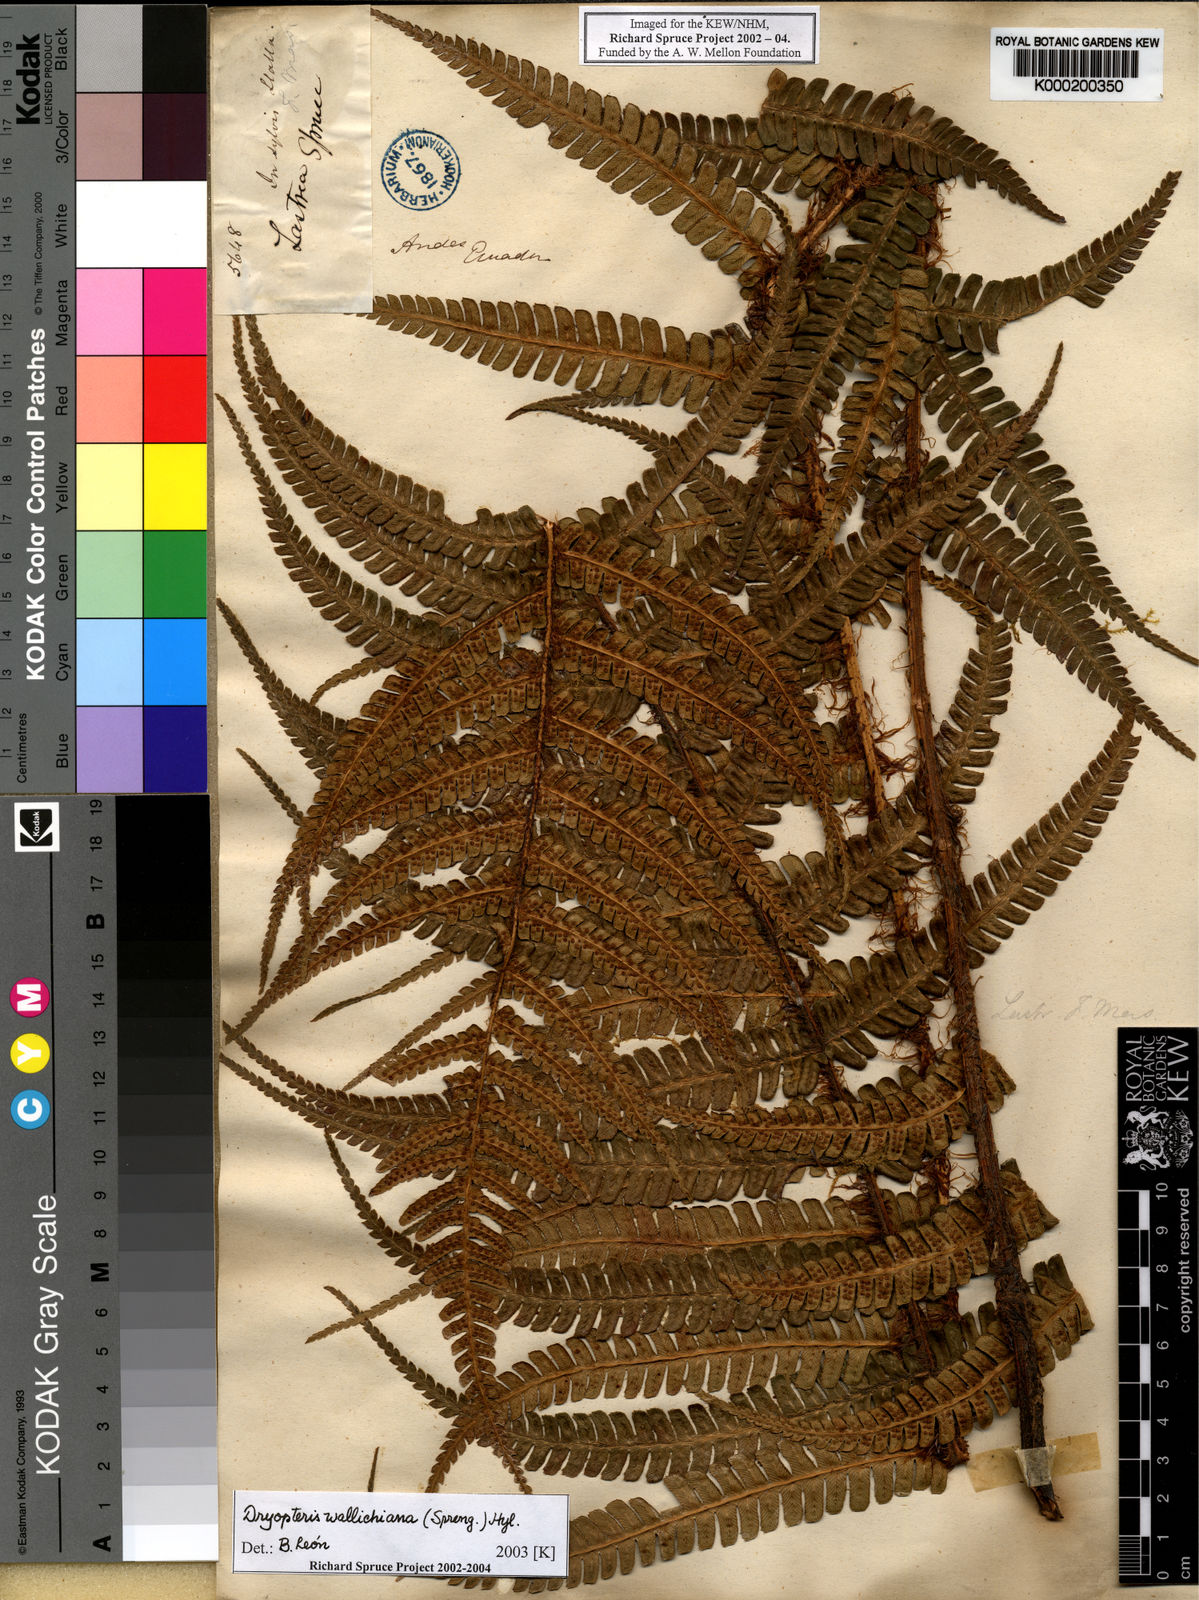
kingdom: Plantae
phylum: Tracheophyta
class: Polypodiopsida
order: Polypodiales
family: Dryopteridaceae
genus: Dryopteris
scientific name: Dryopteris
